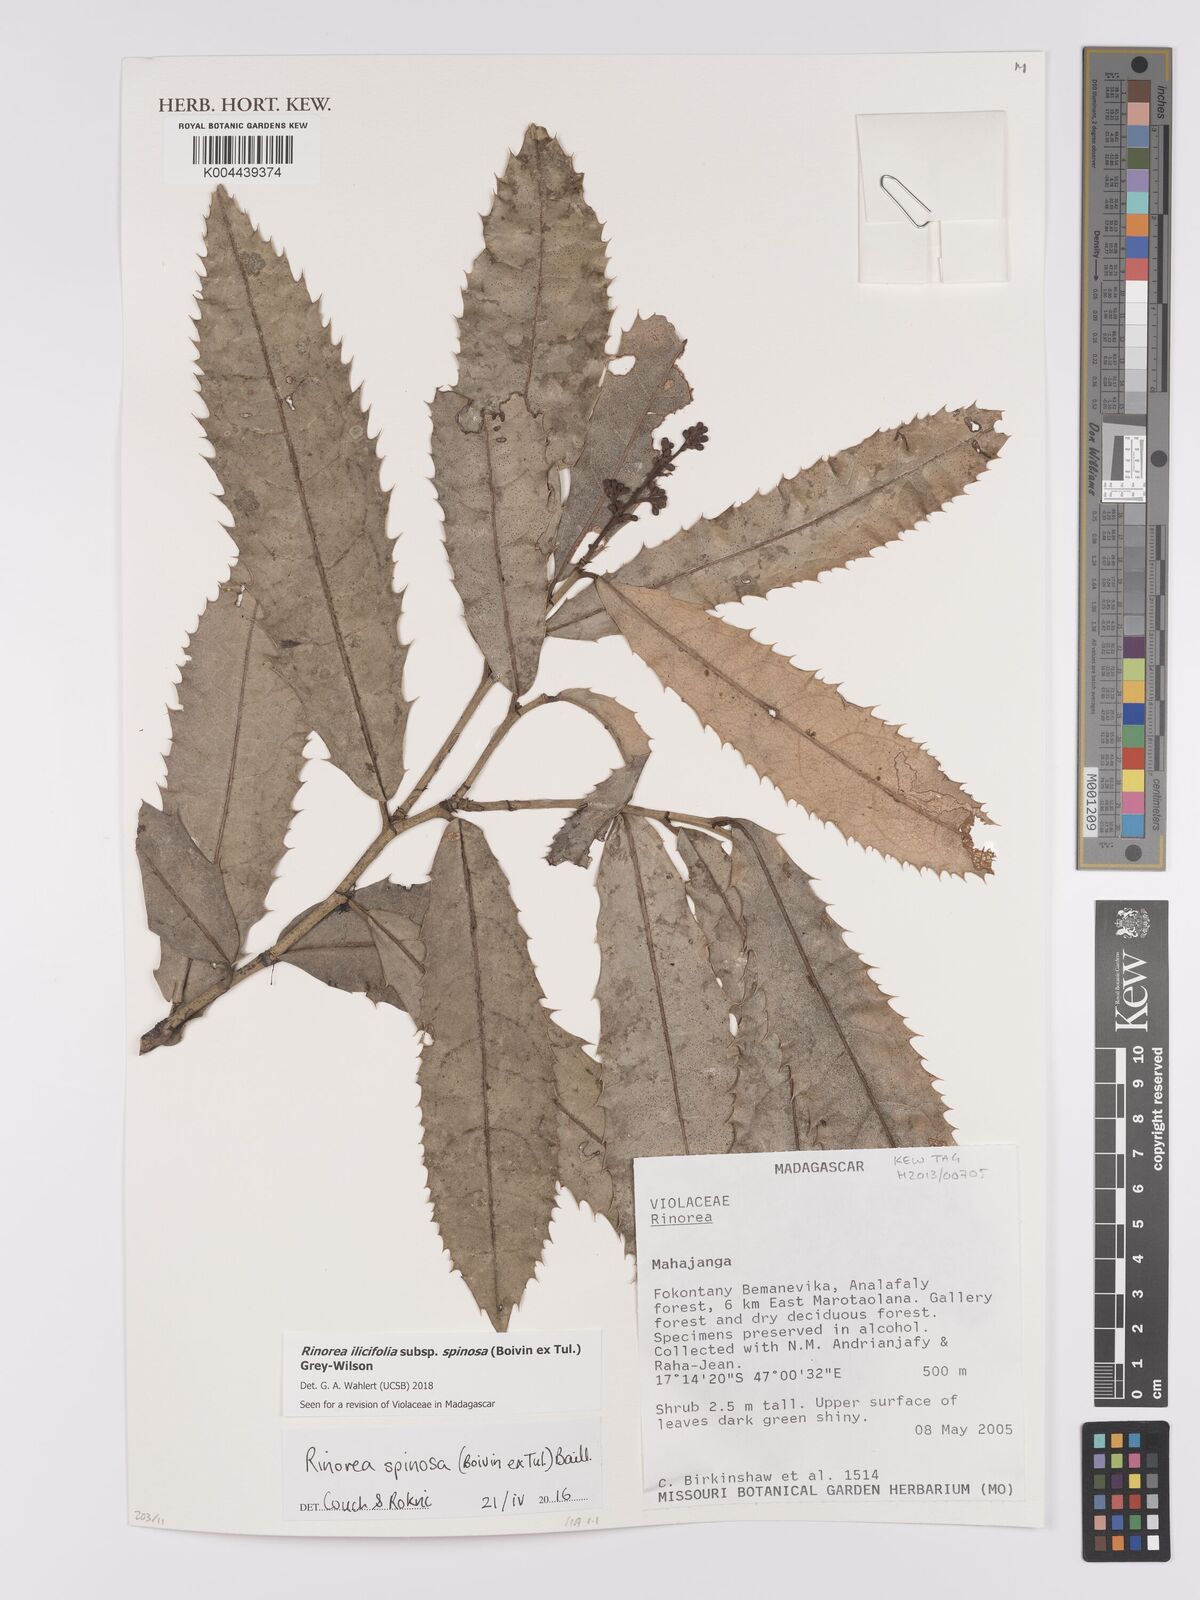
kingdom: Plantae
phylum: Tracheophyta
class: Magnoliopsida
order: Malpighiales
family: Violaceae
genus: Rinorea
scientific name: Rinorea spinosa
